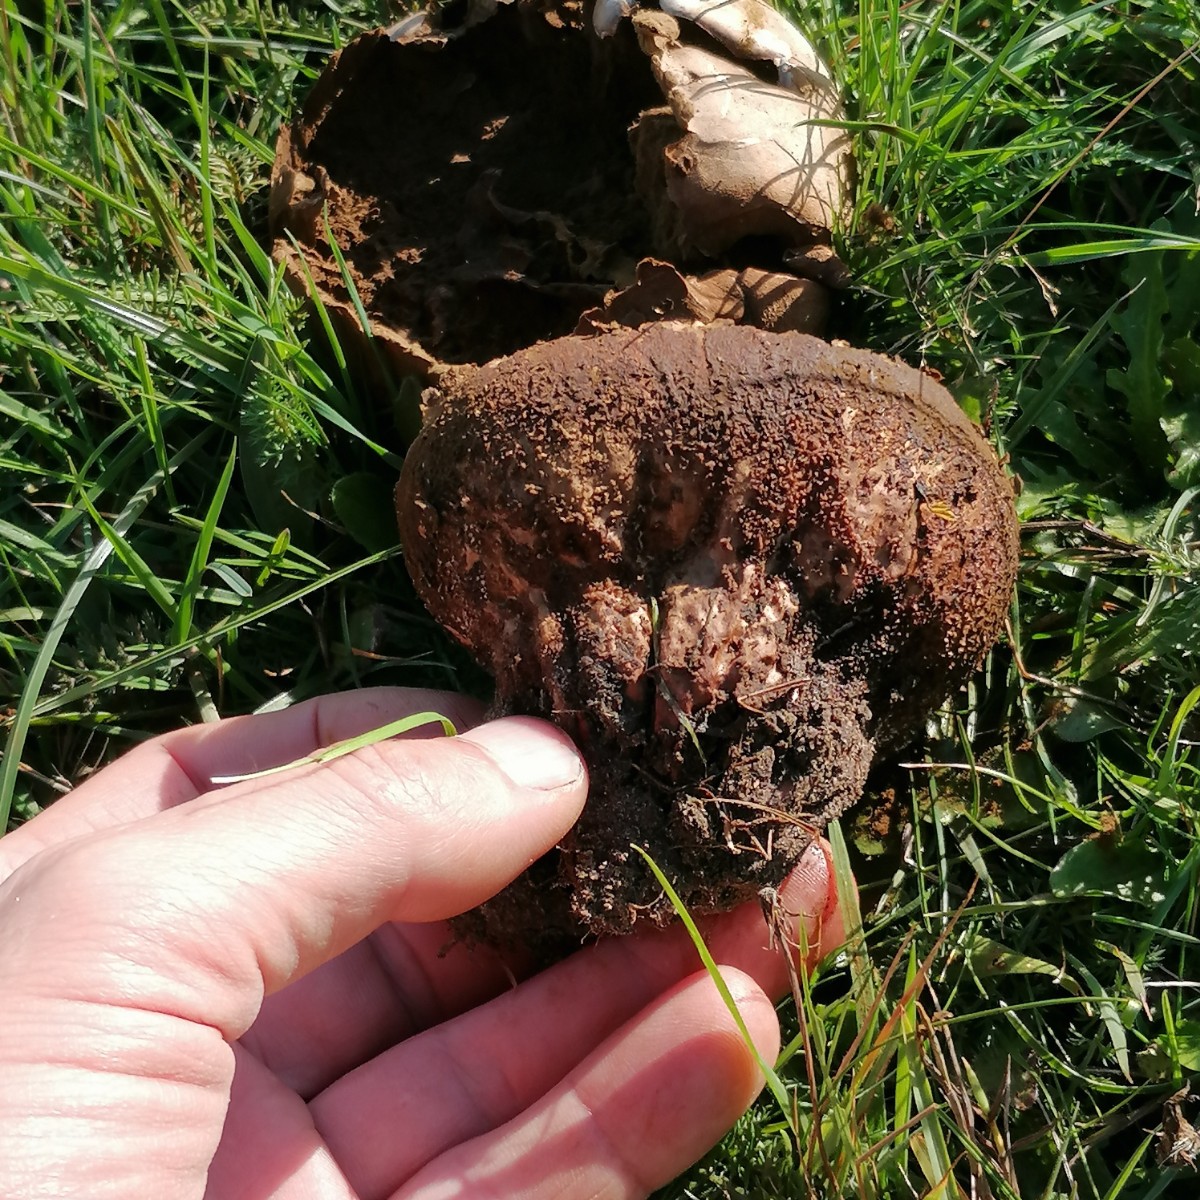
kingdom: Fungi
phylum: Basidiomycota
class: Agaricomycetes
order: Agaricales
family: Lycoperdaceae
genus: Bovistella
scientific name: Bovistella utriformis
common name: skællet støvbold
